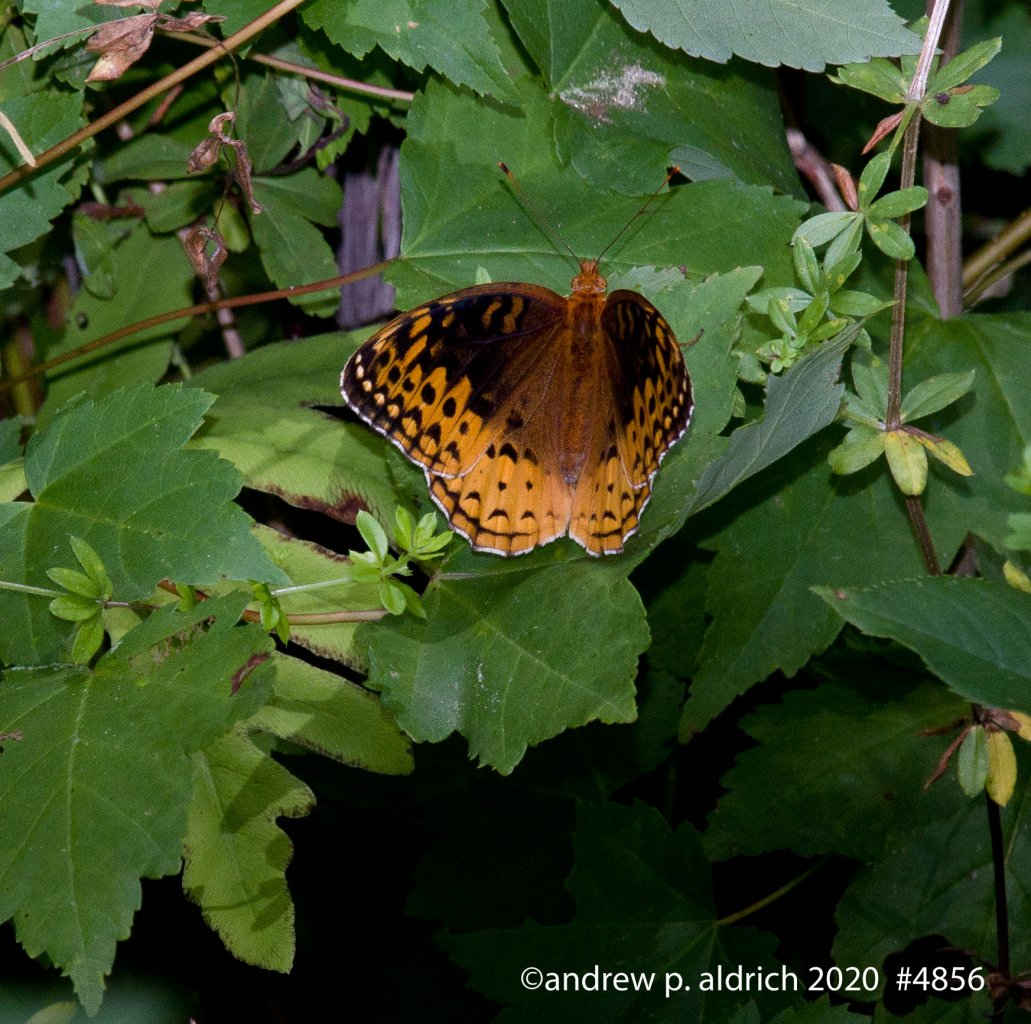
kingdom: Animalia
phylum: Arthropoda
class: Insecta
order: Lepidoptera
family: Nymphalidae
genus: Speyeria
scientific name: Speyeria cybele
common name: Great Spangled Fritillary
